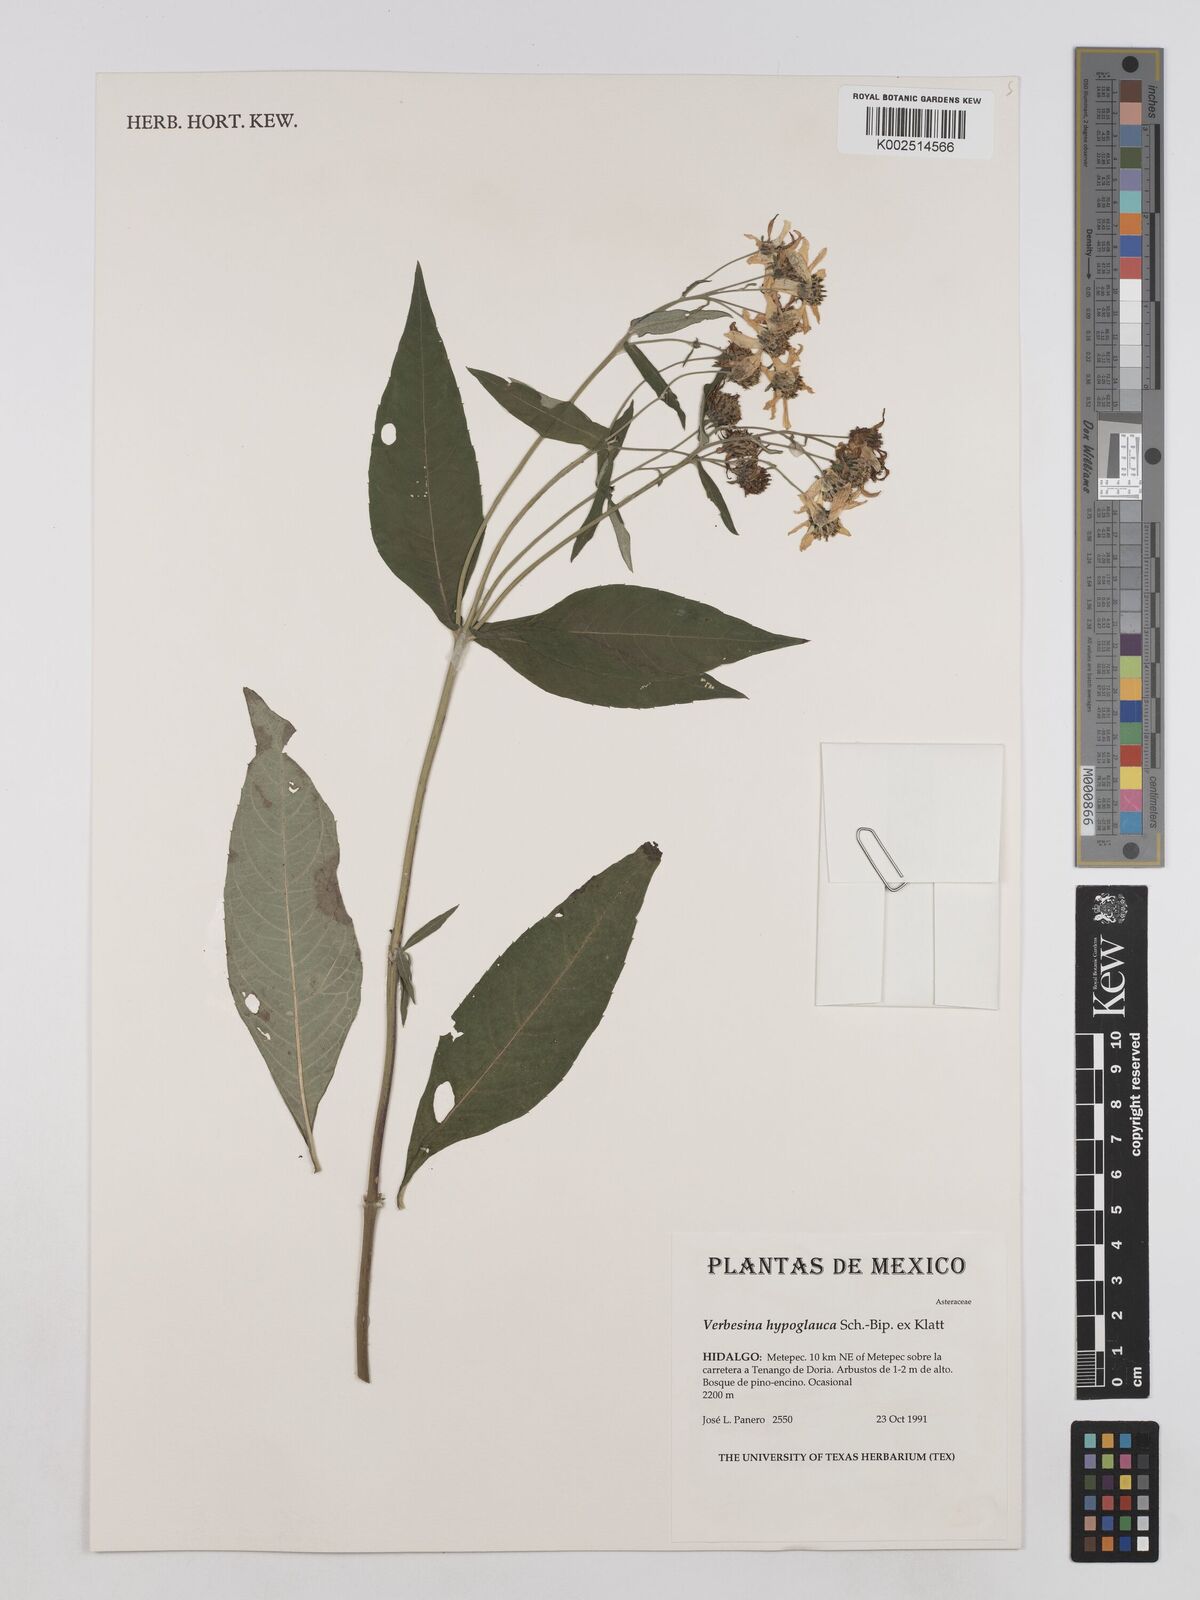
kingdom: Plantae
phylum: Tracheophyta
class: Magnoliopsida
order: Asterales
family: Asteraceae
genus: Verbesina
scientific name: Verbesina hypoglauca
